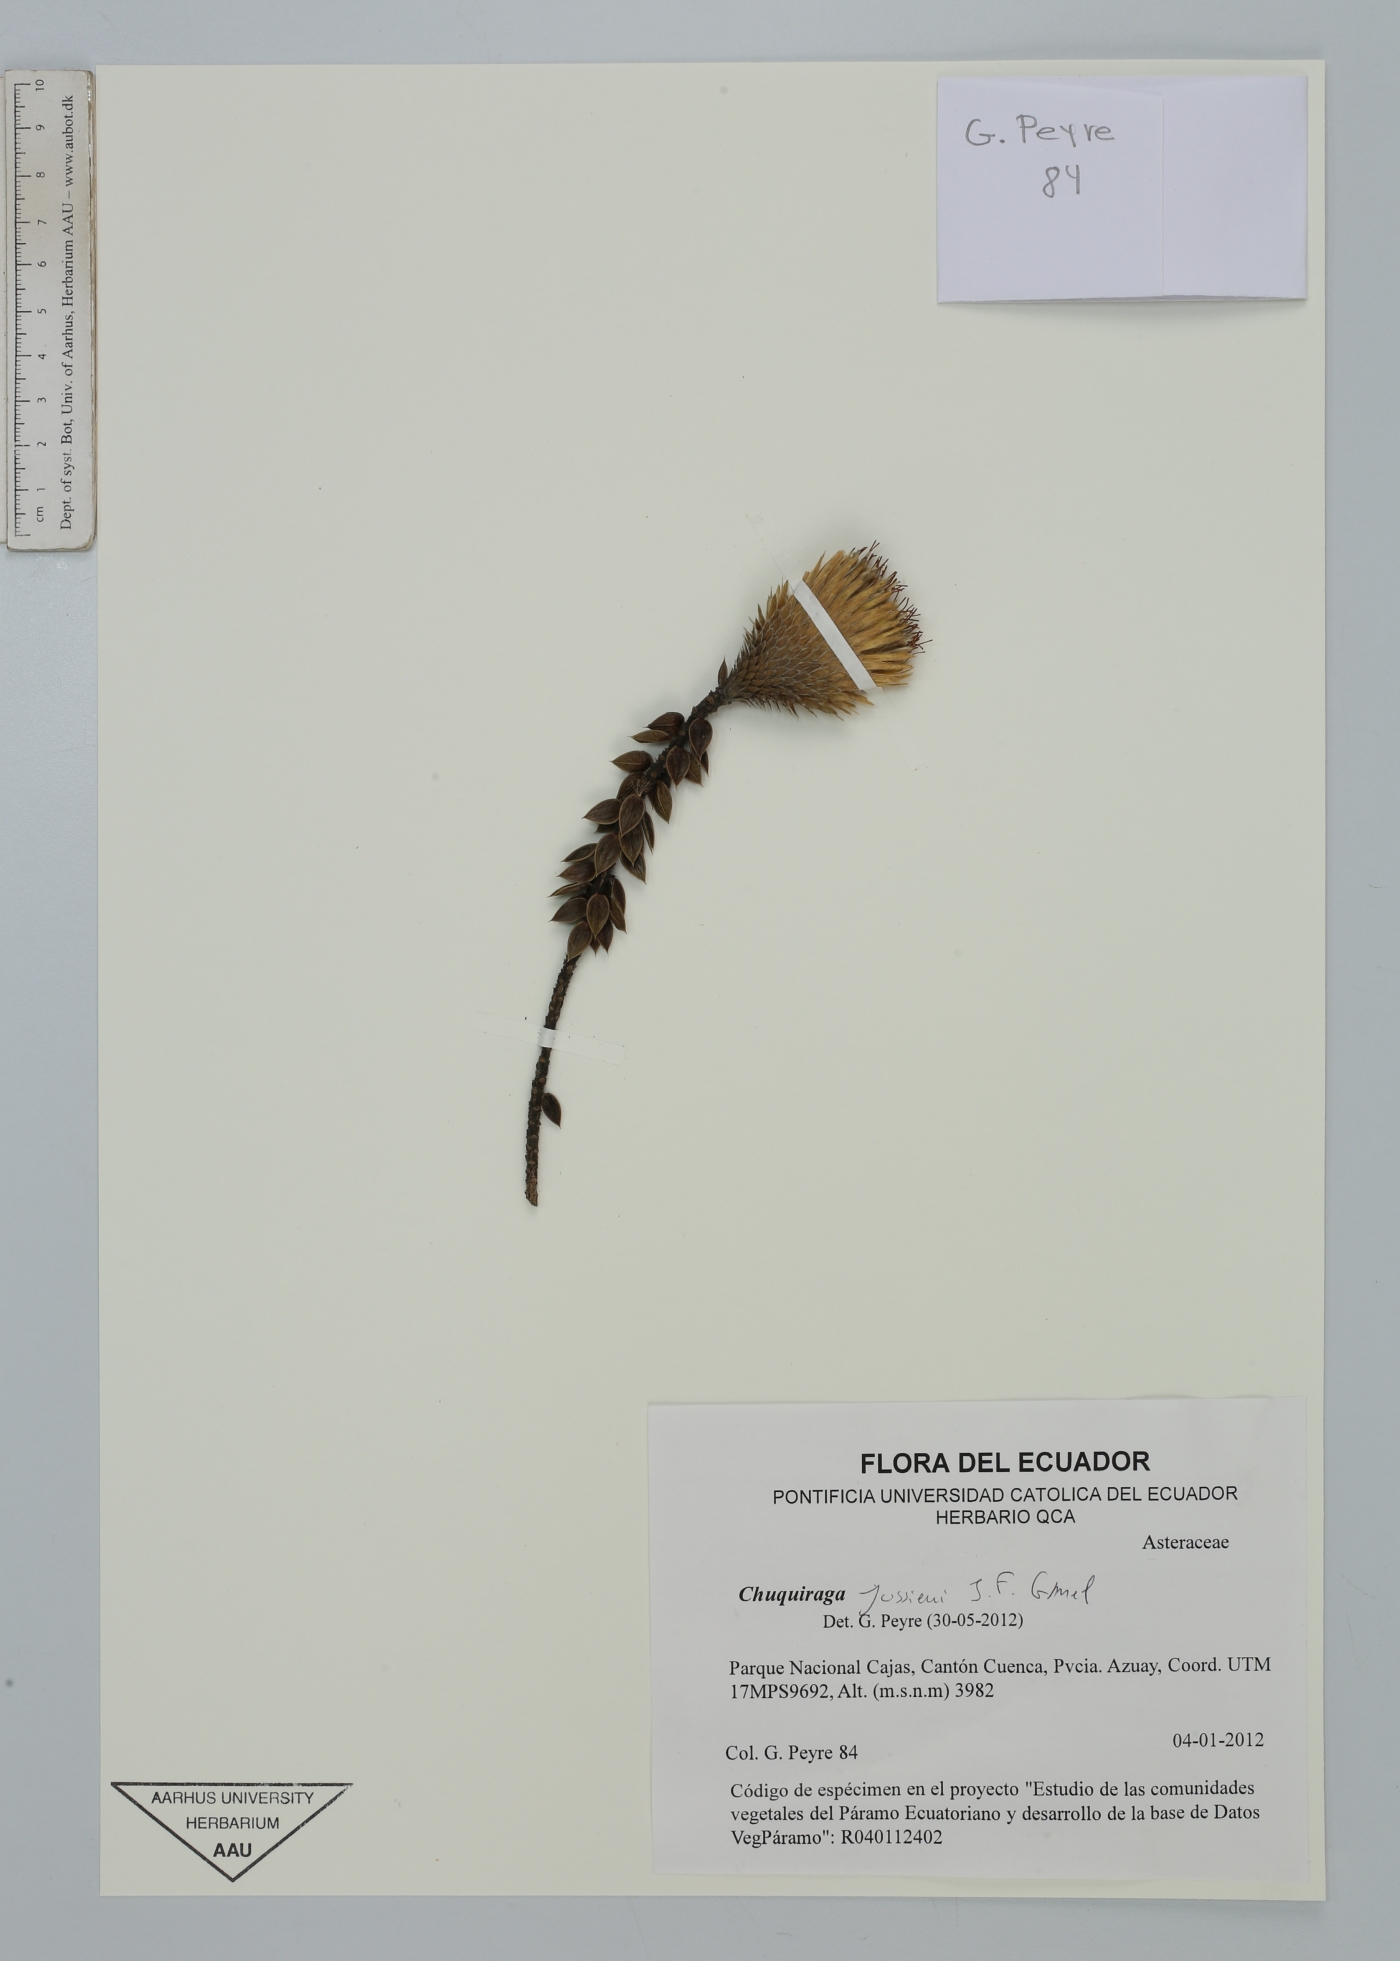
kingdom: Plantae
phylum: Tracheophyta
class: Magnoliopsida
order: Asterales
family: Asteraceae
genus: Chuquiraga
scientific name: Chuquiraga jussieui
